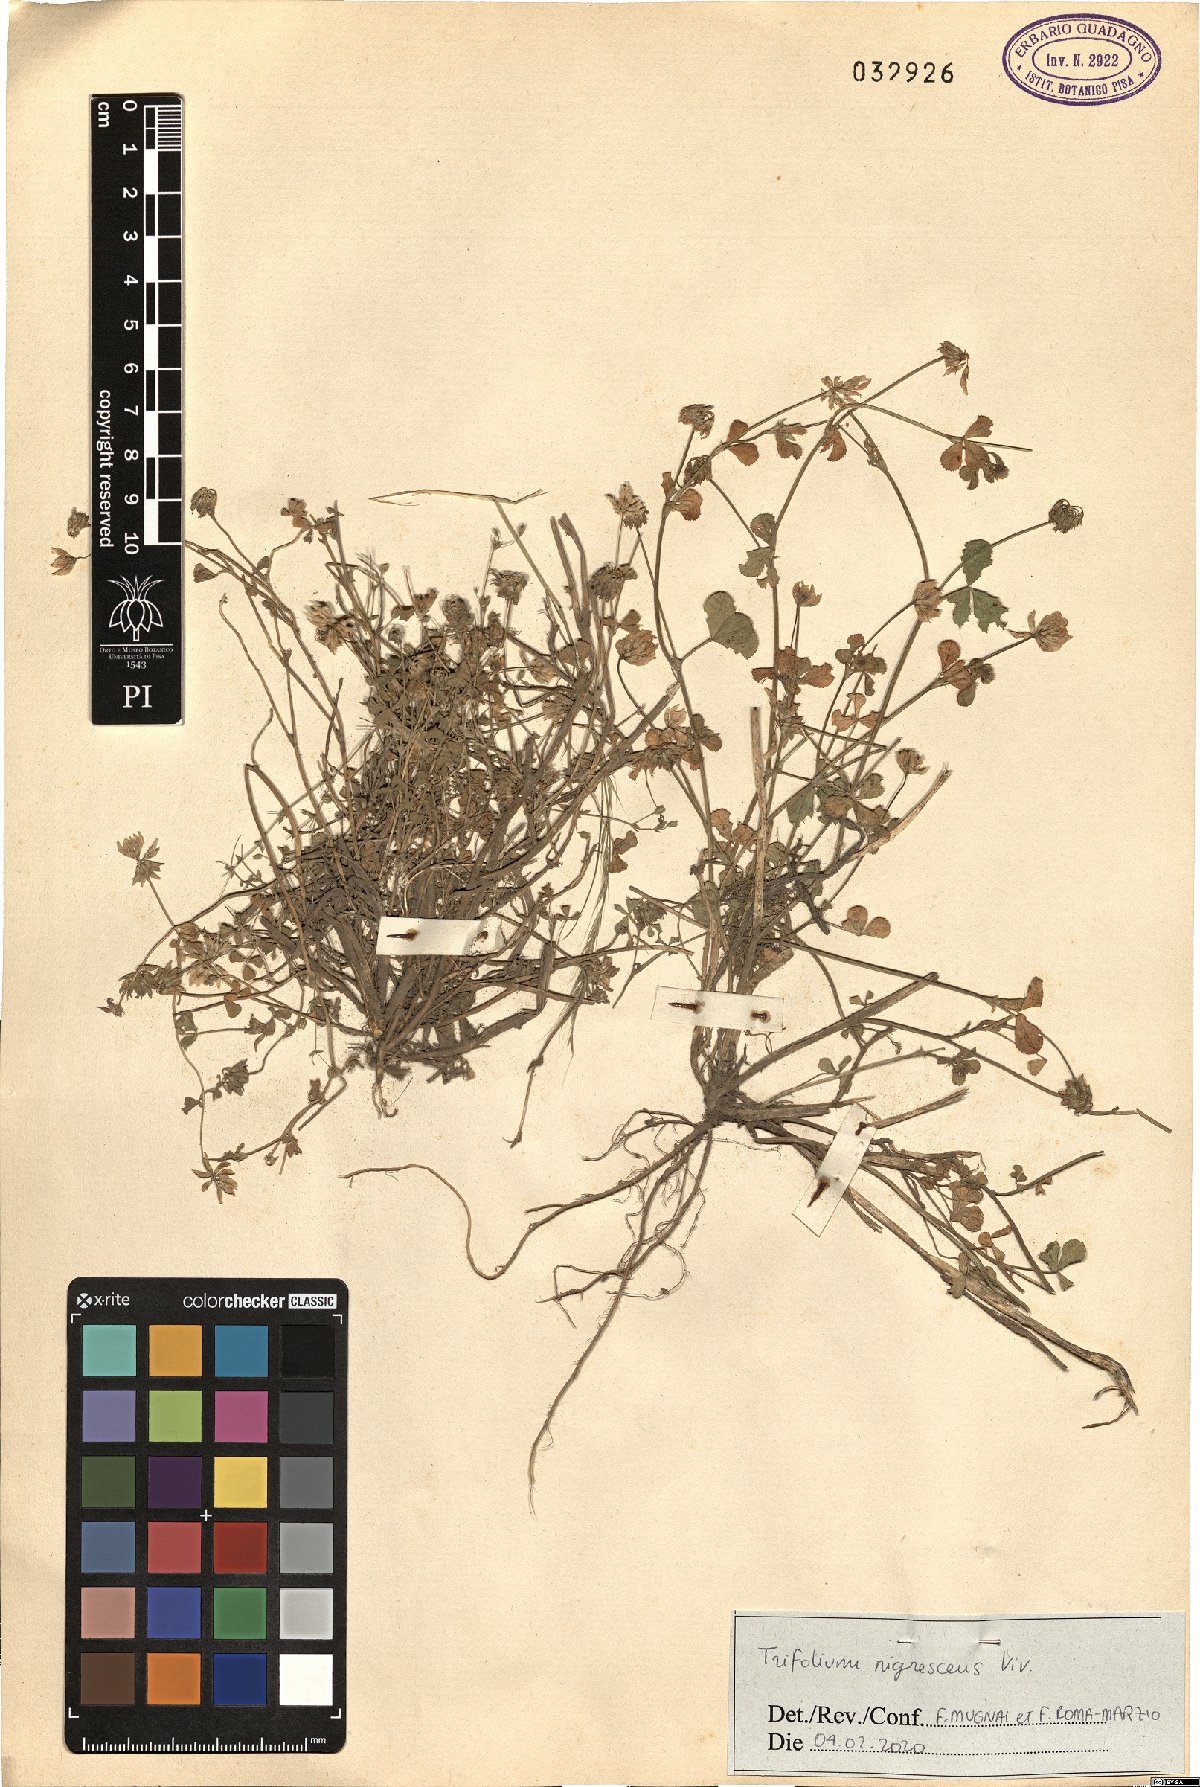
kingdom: Plantae
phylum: Tracheophyta
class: Magnoliopsida
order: Fabales
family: Fabaceae
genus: Trifolium
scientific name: Trifolium nigrescens
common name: Small white clover
